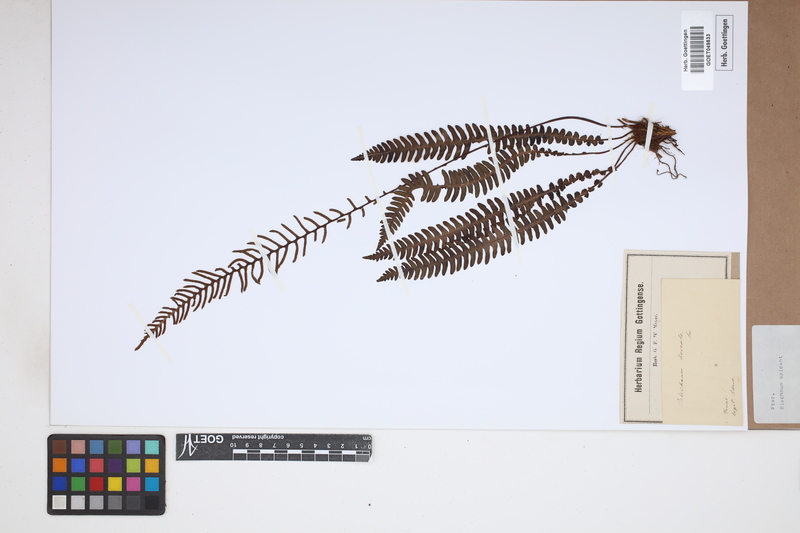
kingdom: Plantae
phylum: Tracheophyta
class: Polypodiopsida
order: Polypodiales
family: Blechnaceae
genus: Struthiopteris
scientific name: Struthiopteris spicant
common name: Deer fern
